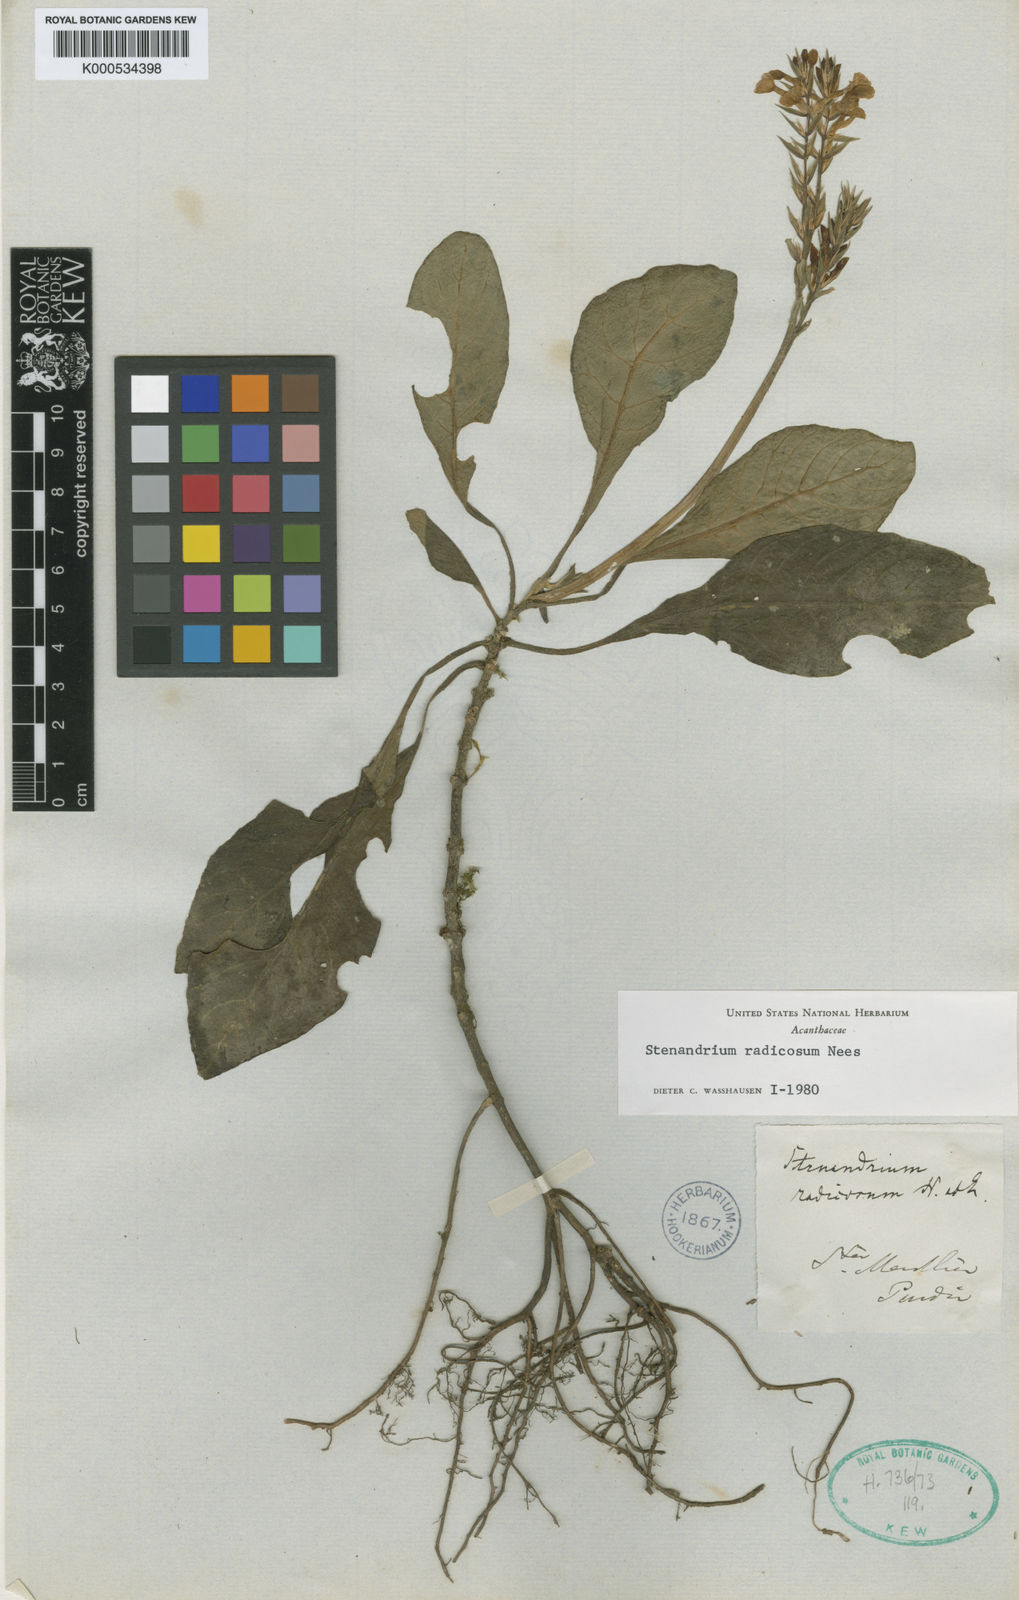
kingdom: Plantae
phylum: Tracheophyta
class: Magnoliopsida
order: Lamiales
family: Acanthaceae
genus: Stenandrium
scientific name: Stenandrium radicosum
